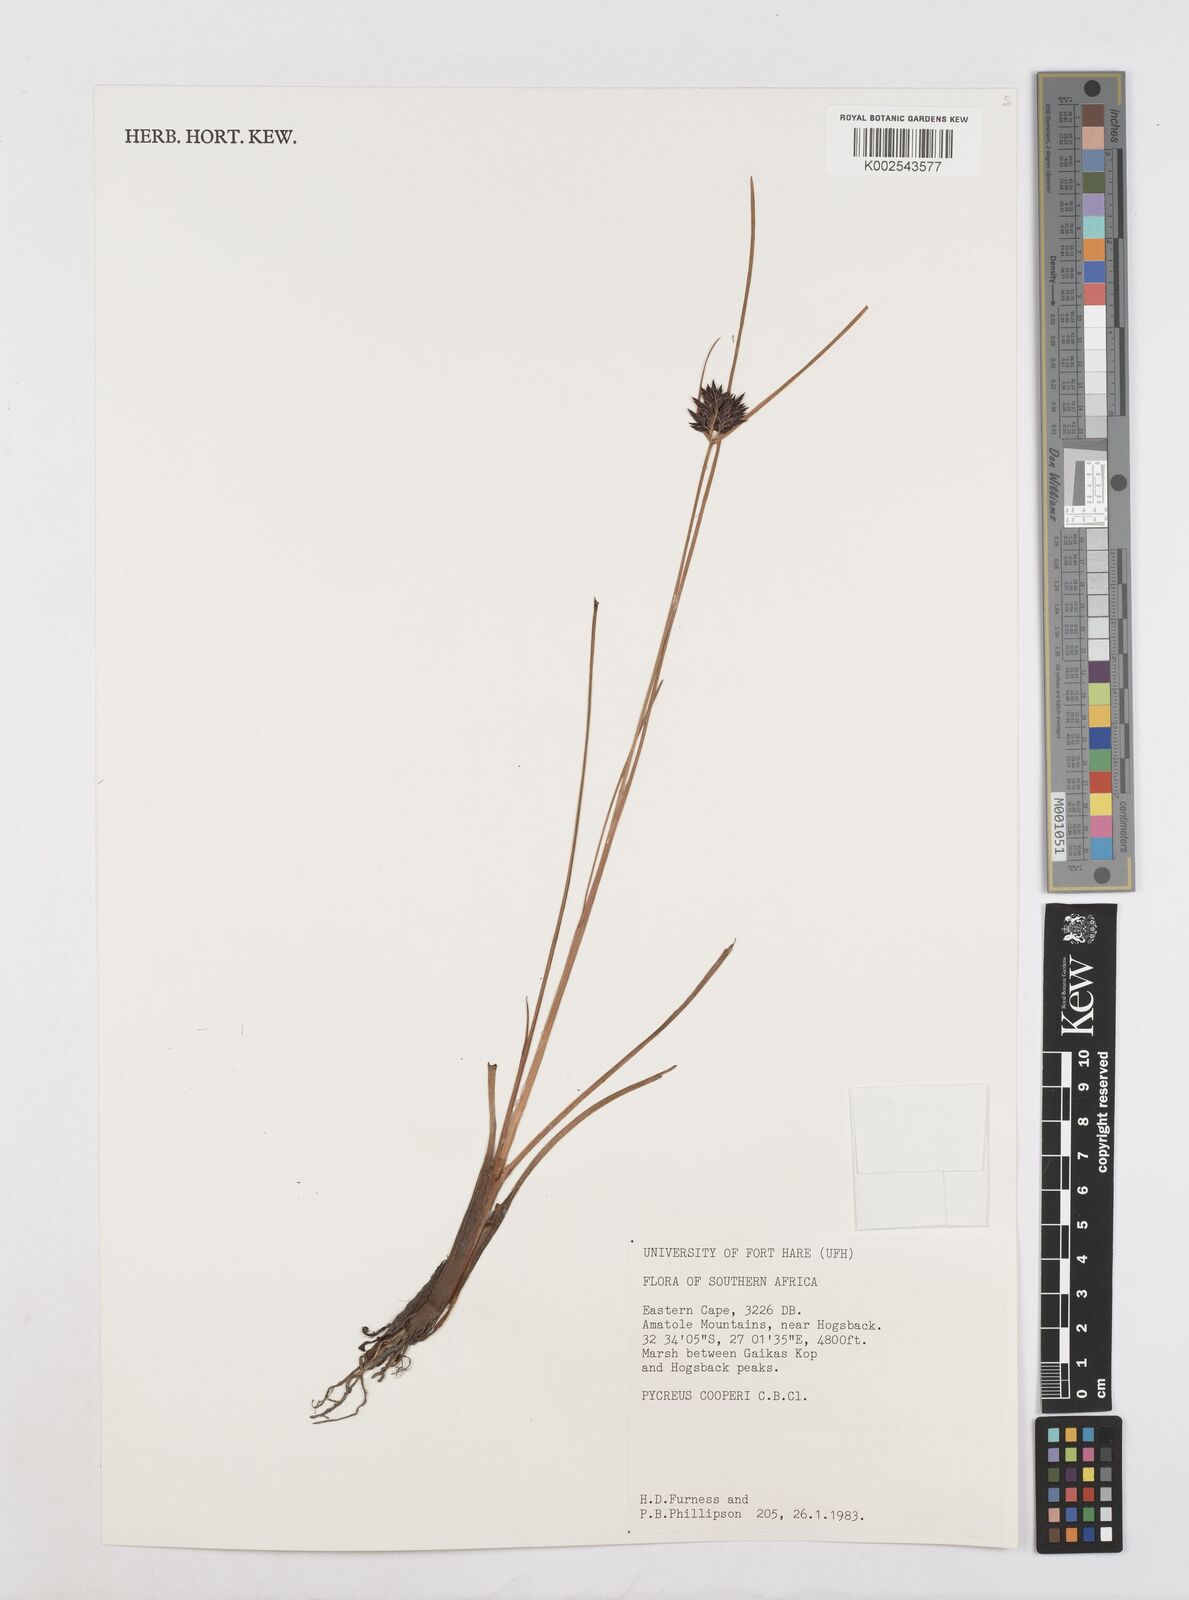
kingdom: Plantae
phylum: Tracheophyta
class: Liliopsida
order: Poales
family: Cyperaceae
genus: Cyperus
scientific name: Cyperus
